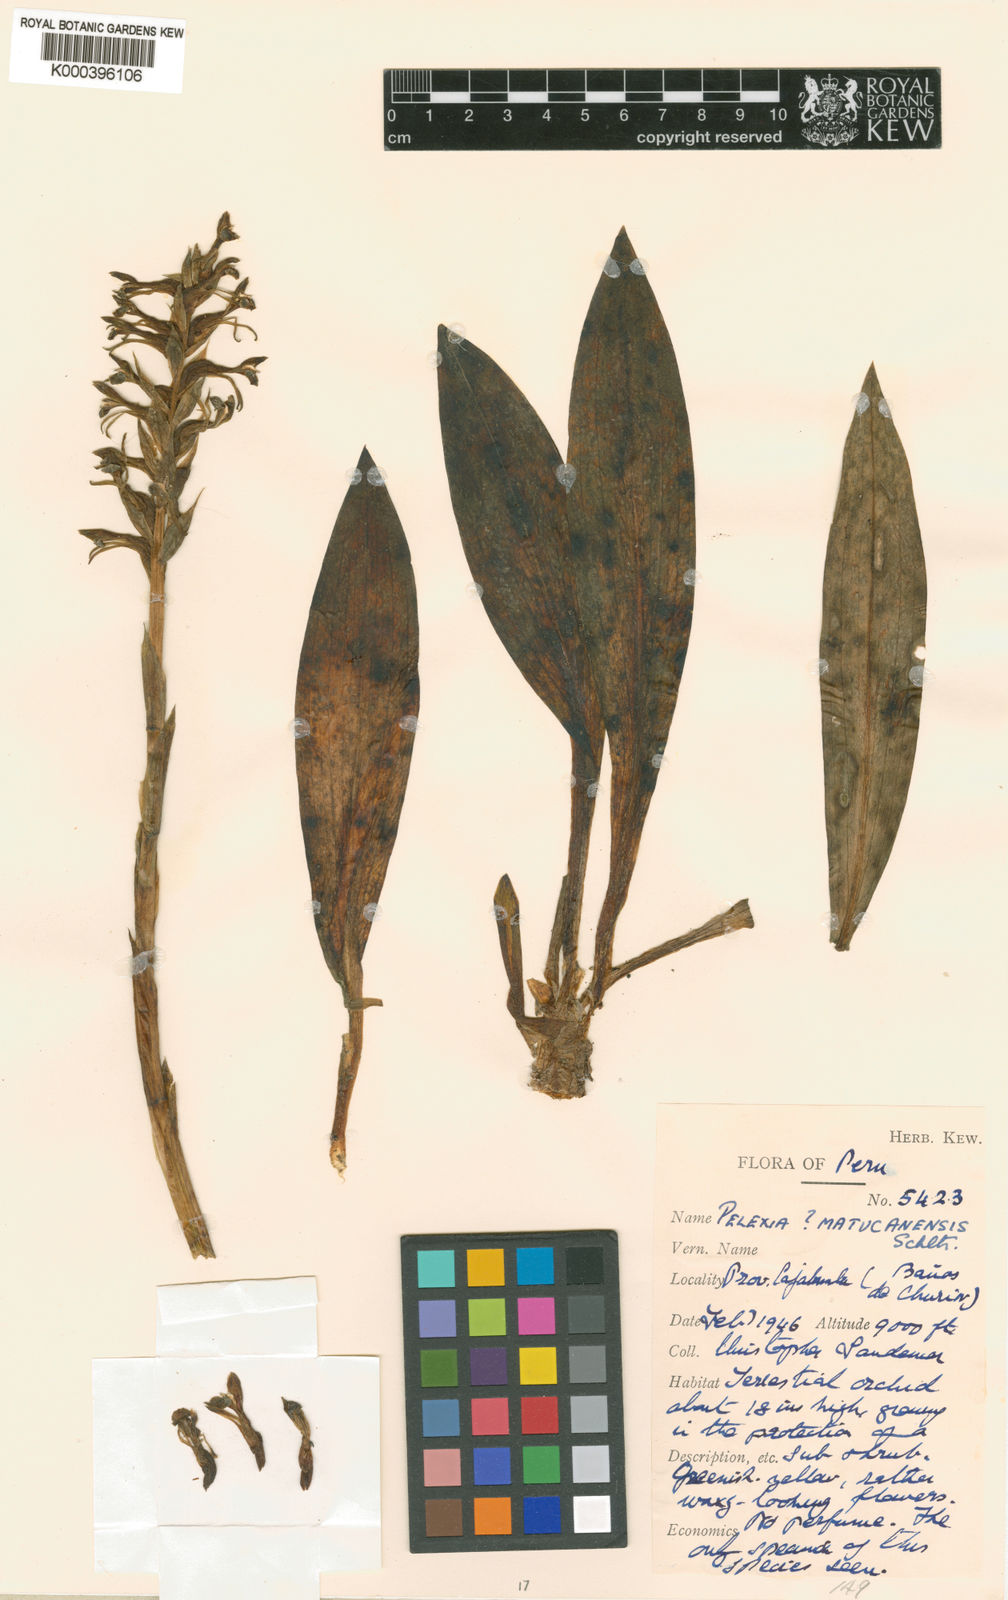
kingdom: Plantae
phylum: Tracheophyta
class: Liliopsida
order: Asparagales
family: Orchidaceae
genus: Pelexia
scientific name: Pelexia matucanensis
